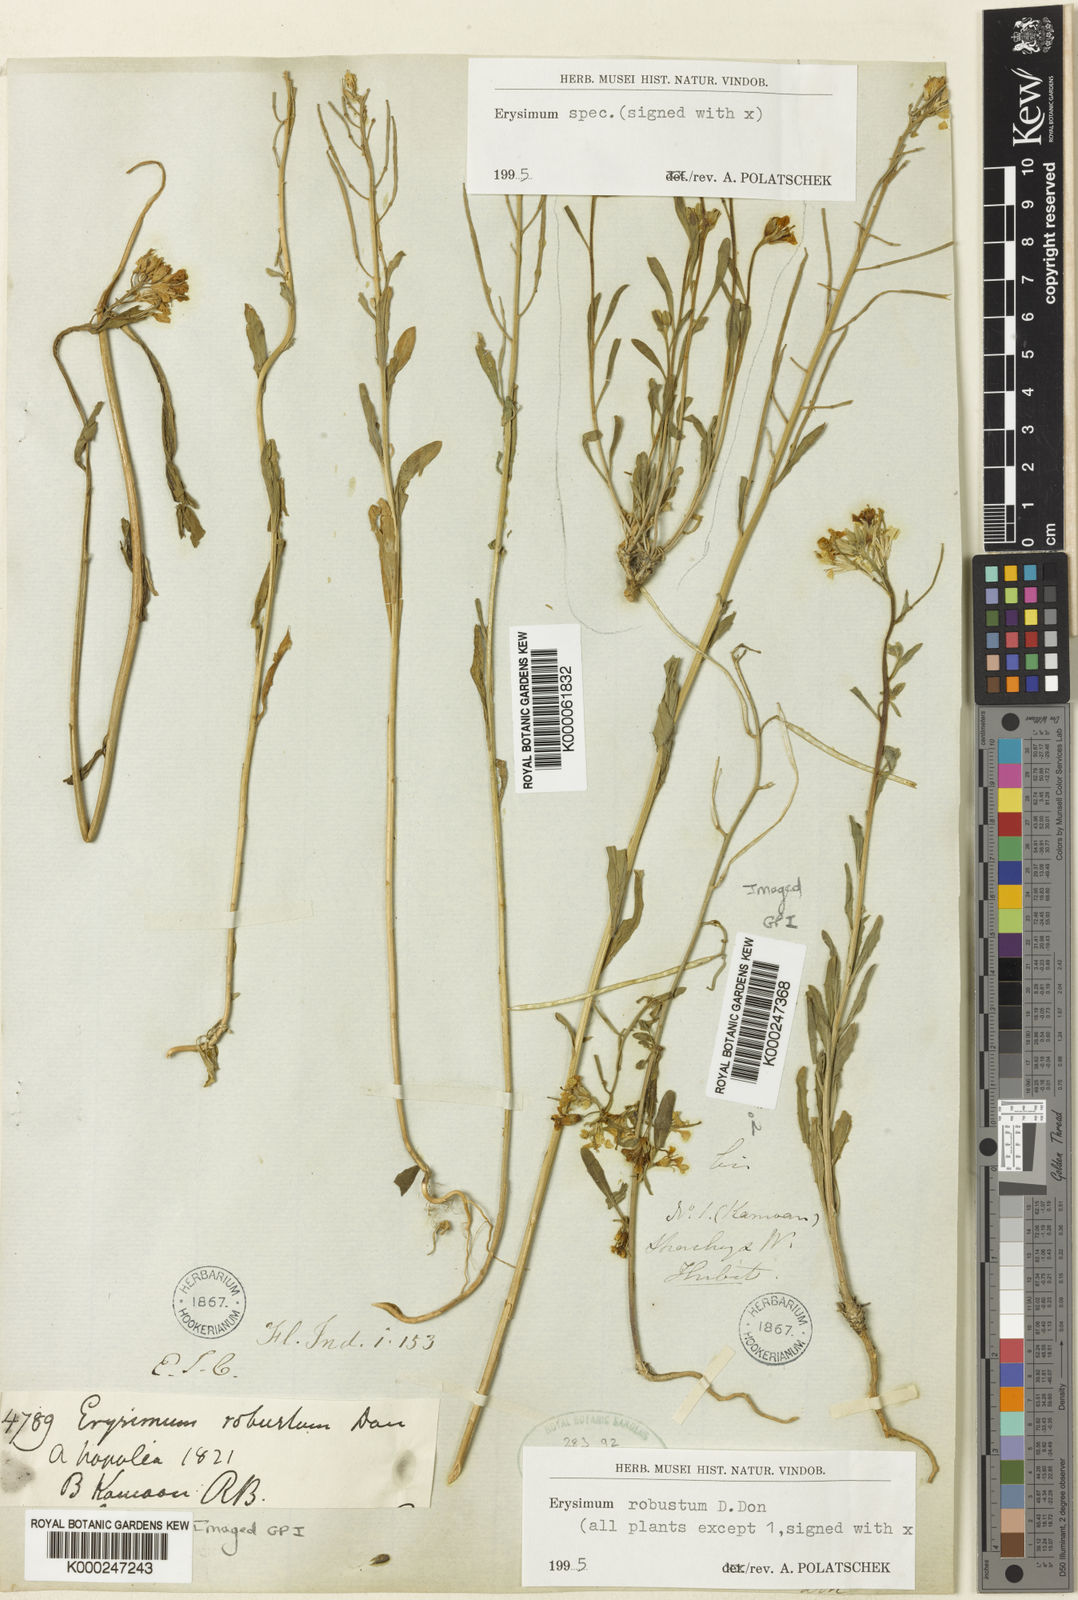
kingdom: Plantae
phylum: Tracheophyta
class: Magnoliopsida
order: Brassicales
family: Brassicaceae
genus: Erysimum
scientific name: Erysimum hieraciifolium
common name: European wallflower
